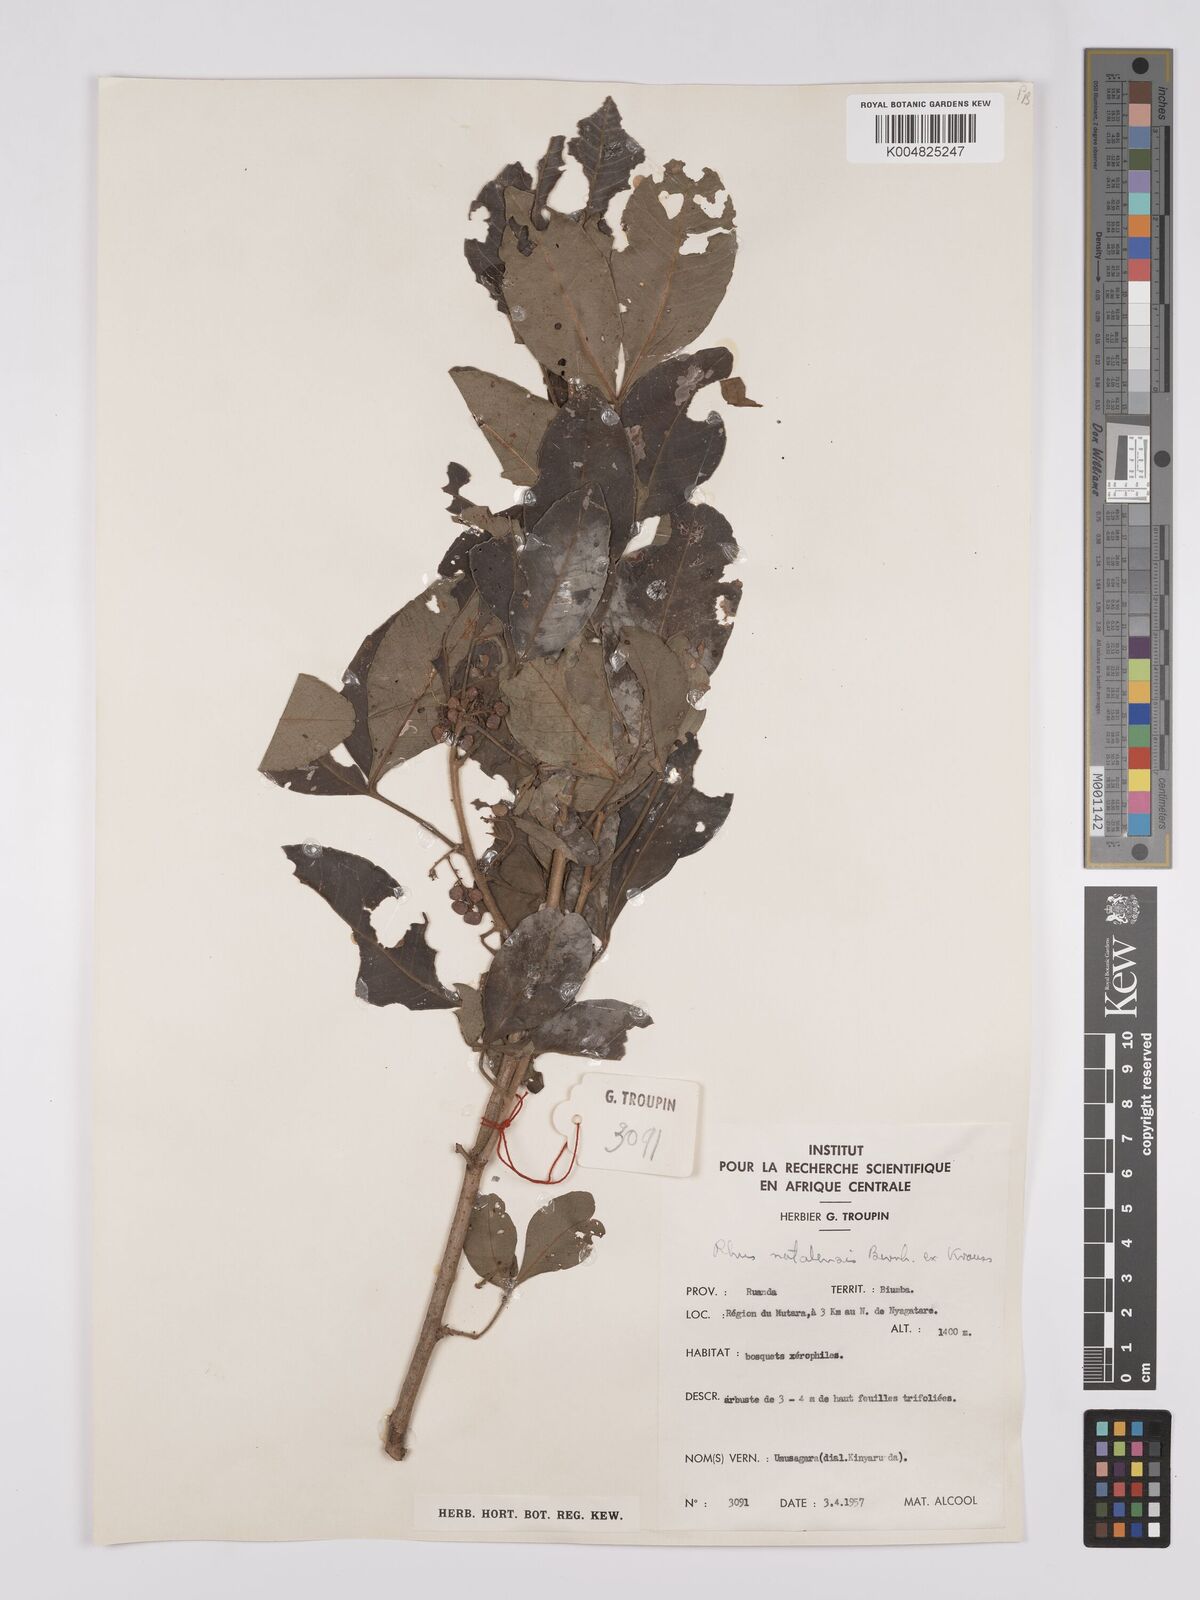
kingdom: Plantae
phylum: Tracheophyta
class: Magnoliopsida
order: Sapindales
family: Anacardiaceae
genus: Searsia
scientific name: Searsia natalensis
